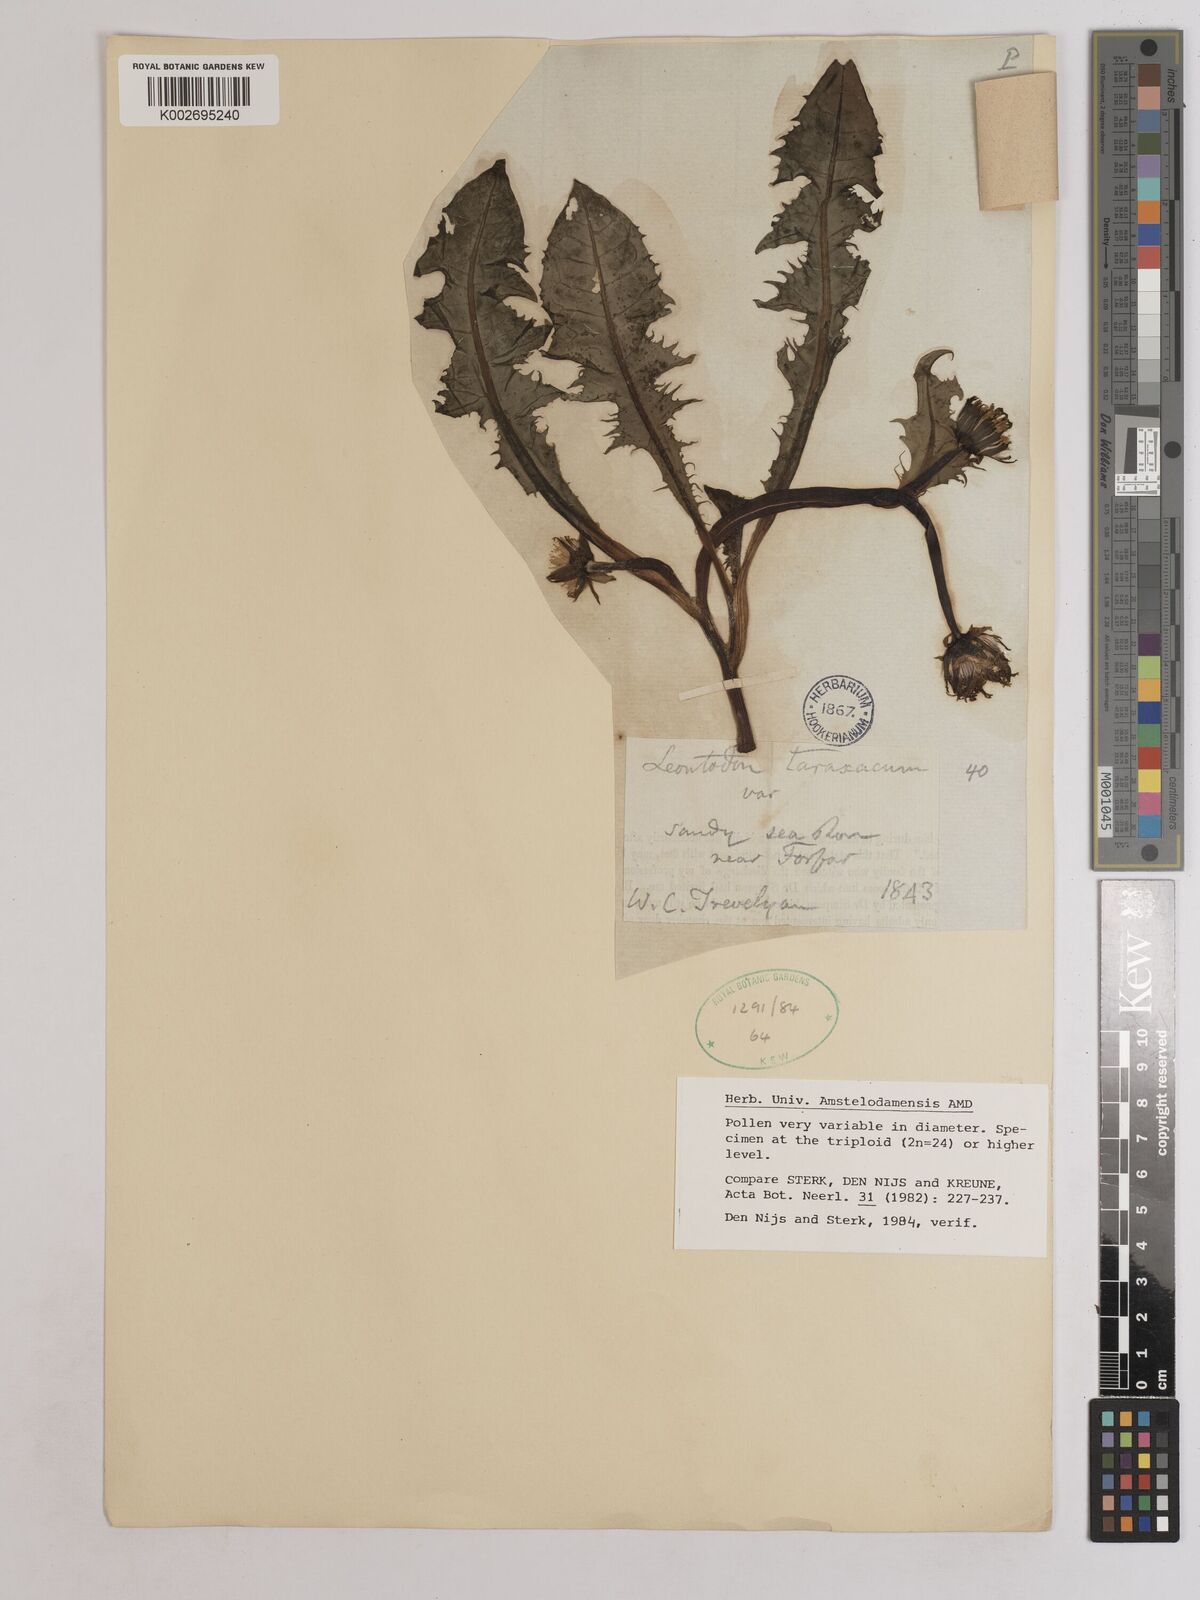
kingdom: Plantae
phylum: Tracheophyta
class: Magnoliopsida
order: Asterales
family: Asteraceae
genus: Taraxacum
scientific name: Taraxacum officinale
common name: Common dandelion
